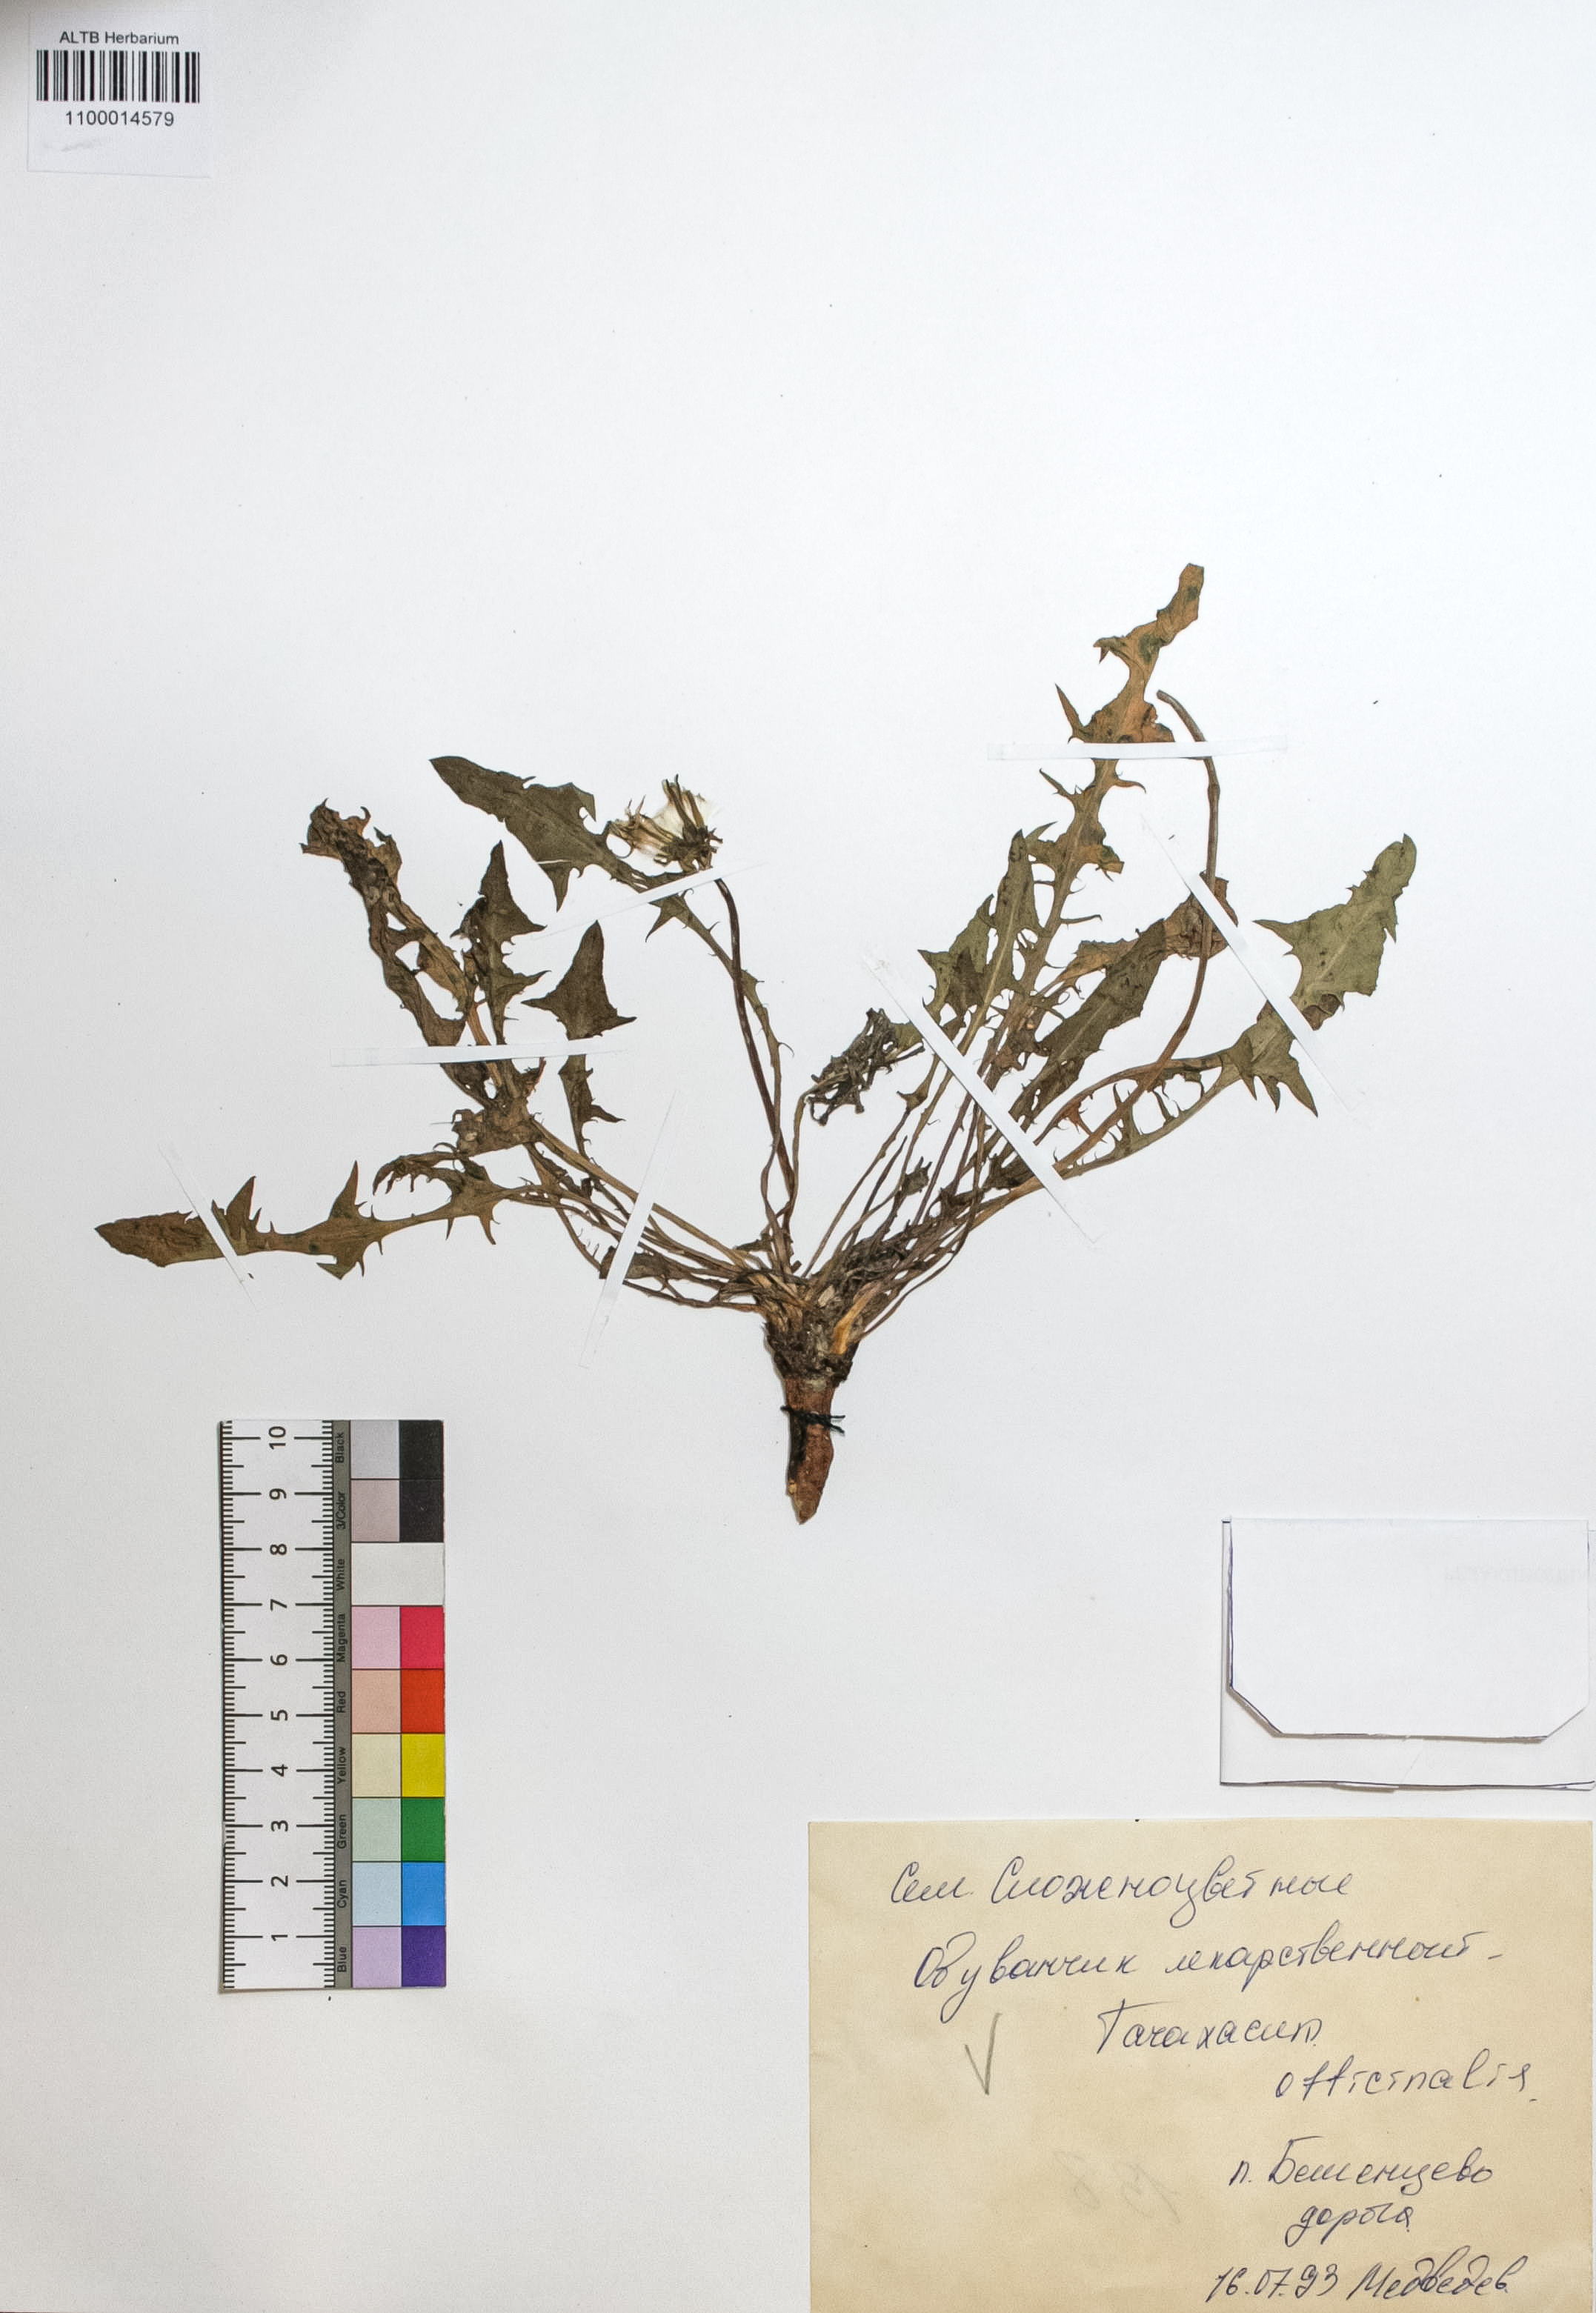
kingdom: Plantae
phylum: Tracheophyta
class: Magnoliopsida
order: Asterales
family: Asteraceae
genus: Taraxacum
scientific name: Taraxacum officinale
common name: Common dandelion
